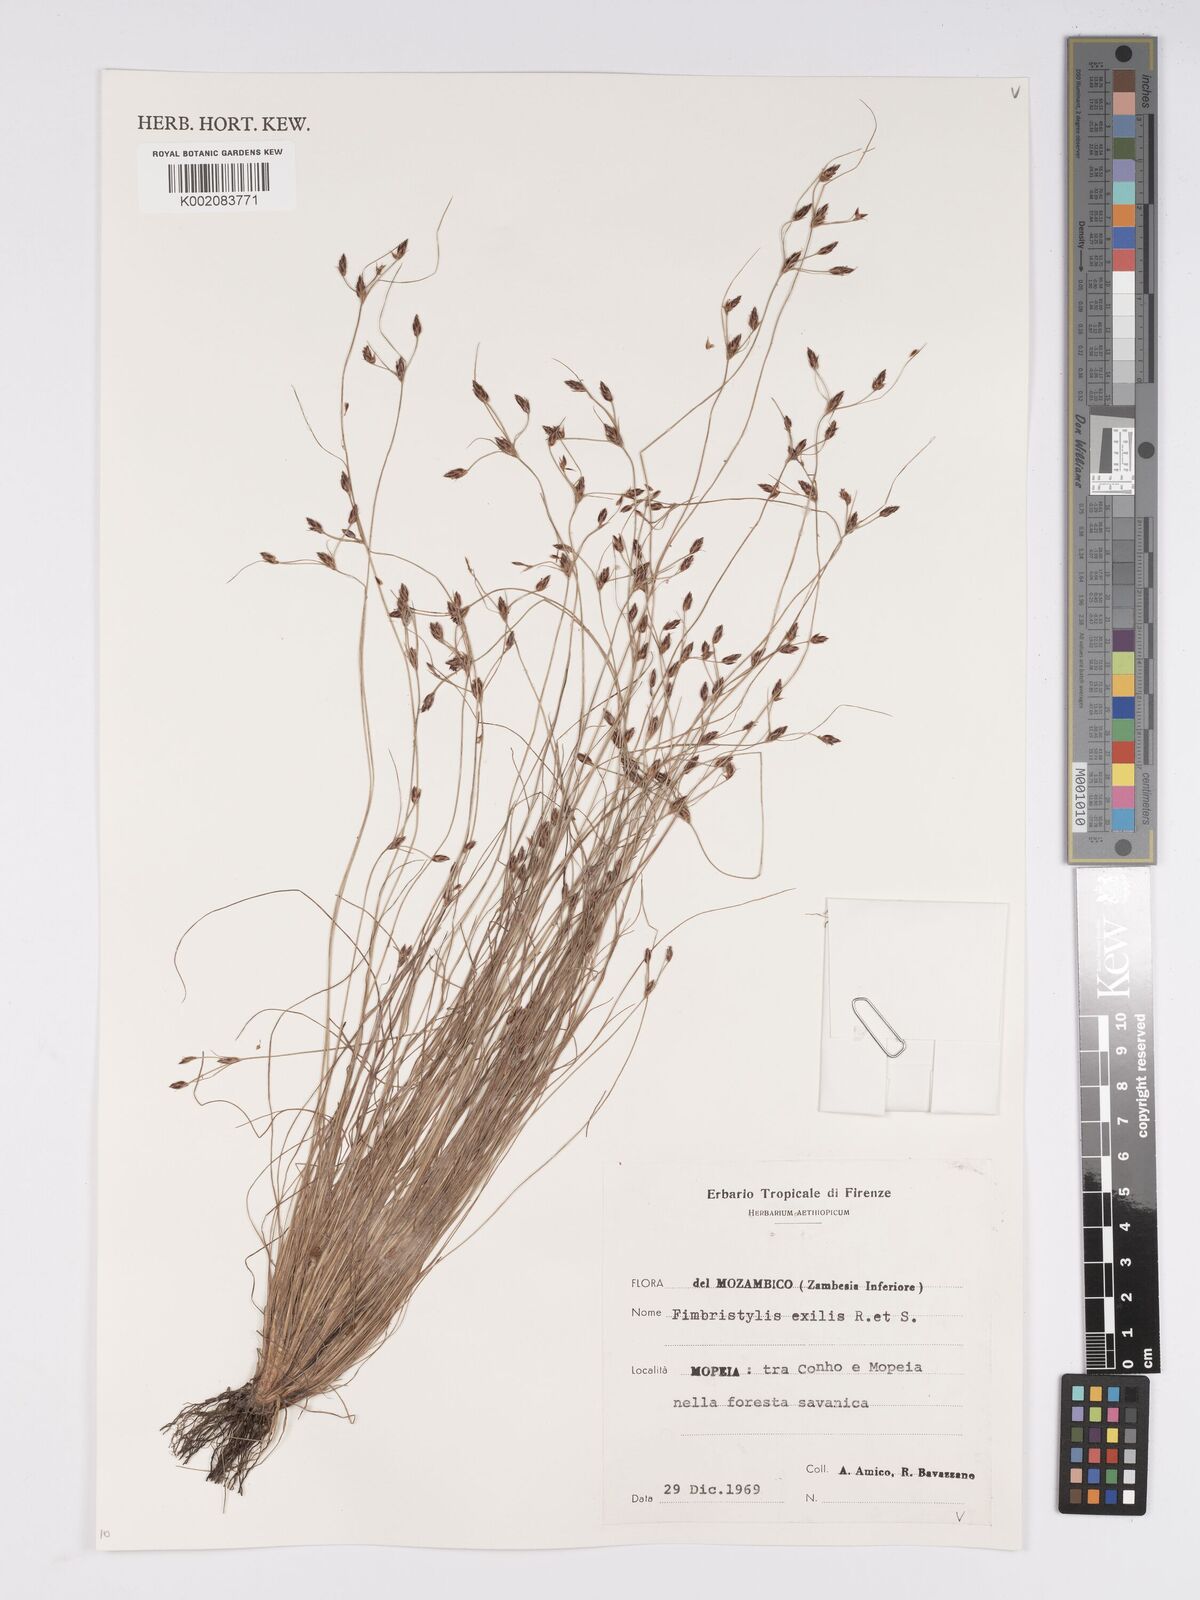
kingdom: Plantae
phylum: Tracheophyta
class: Liliopsida
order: Poales
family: Cyperaceae
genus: Bulbostylis
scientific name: Bulbostylis hispidula
